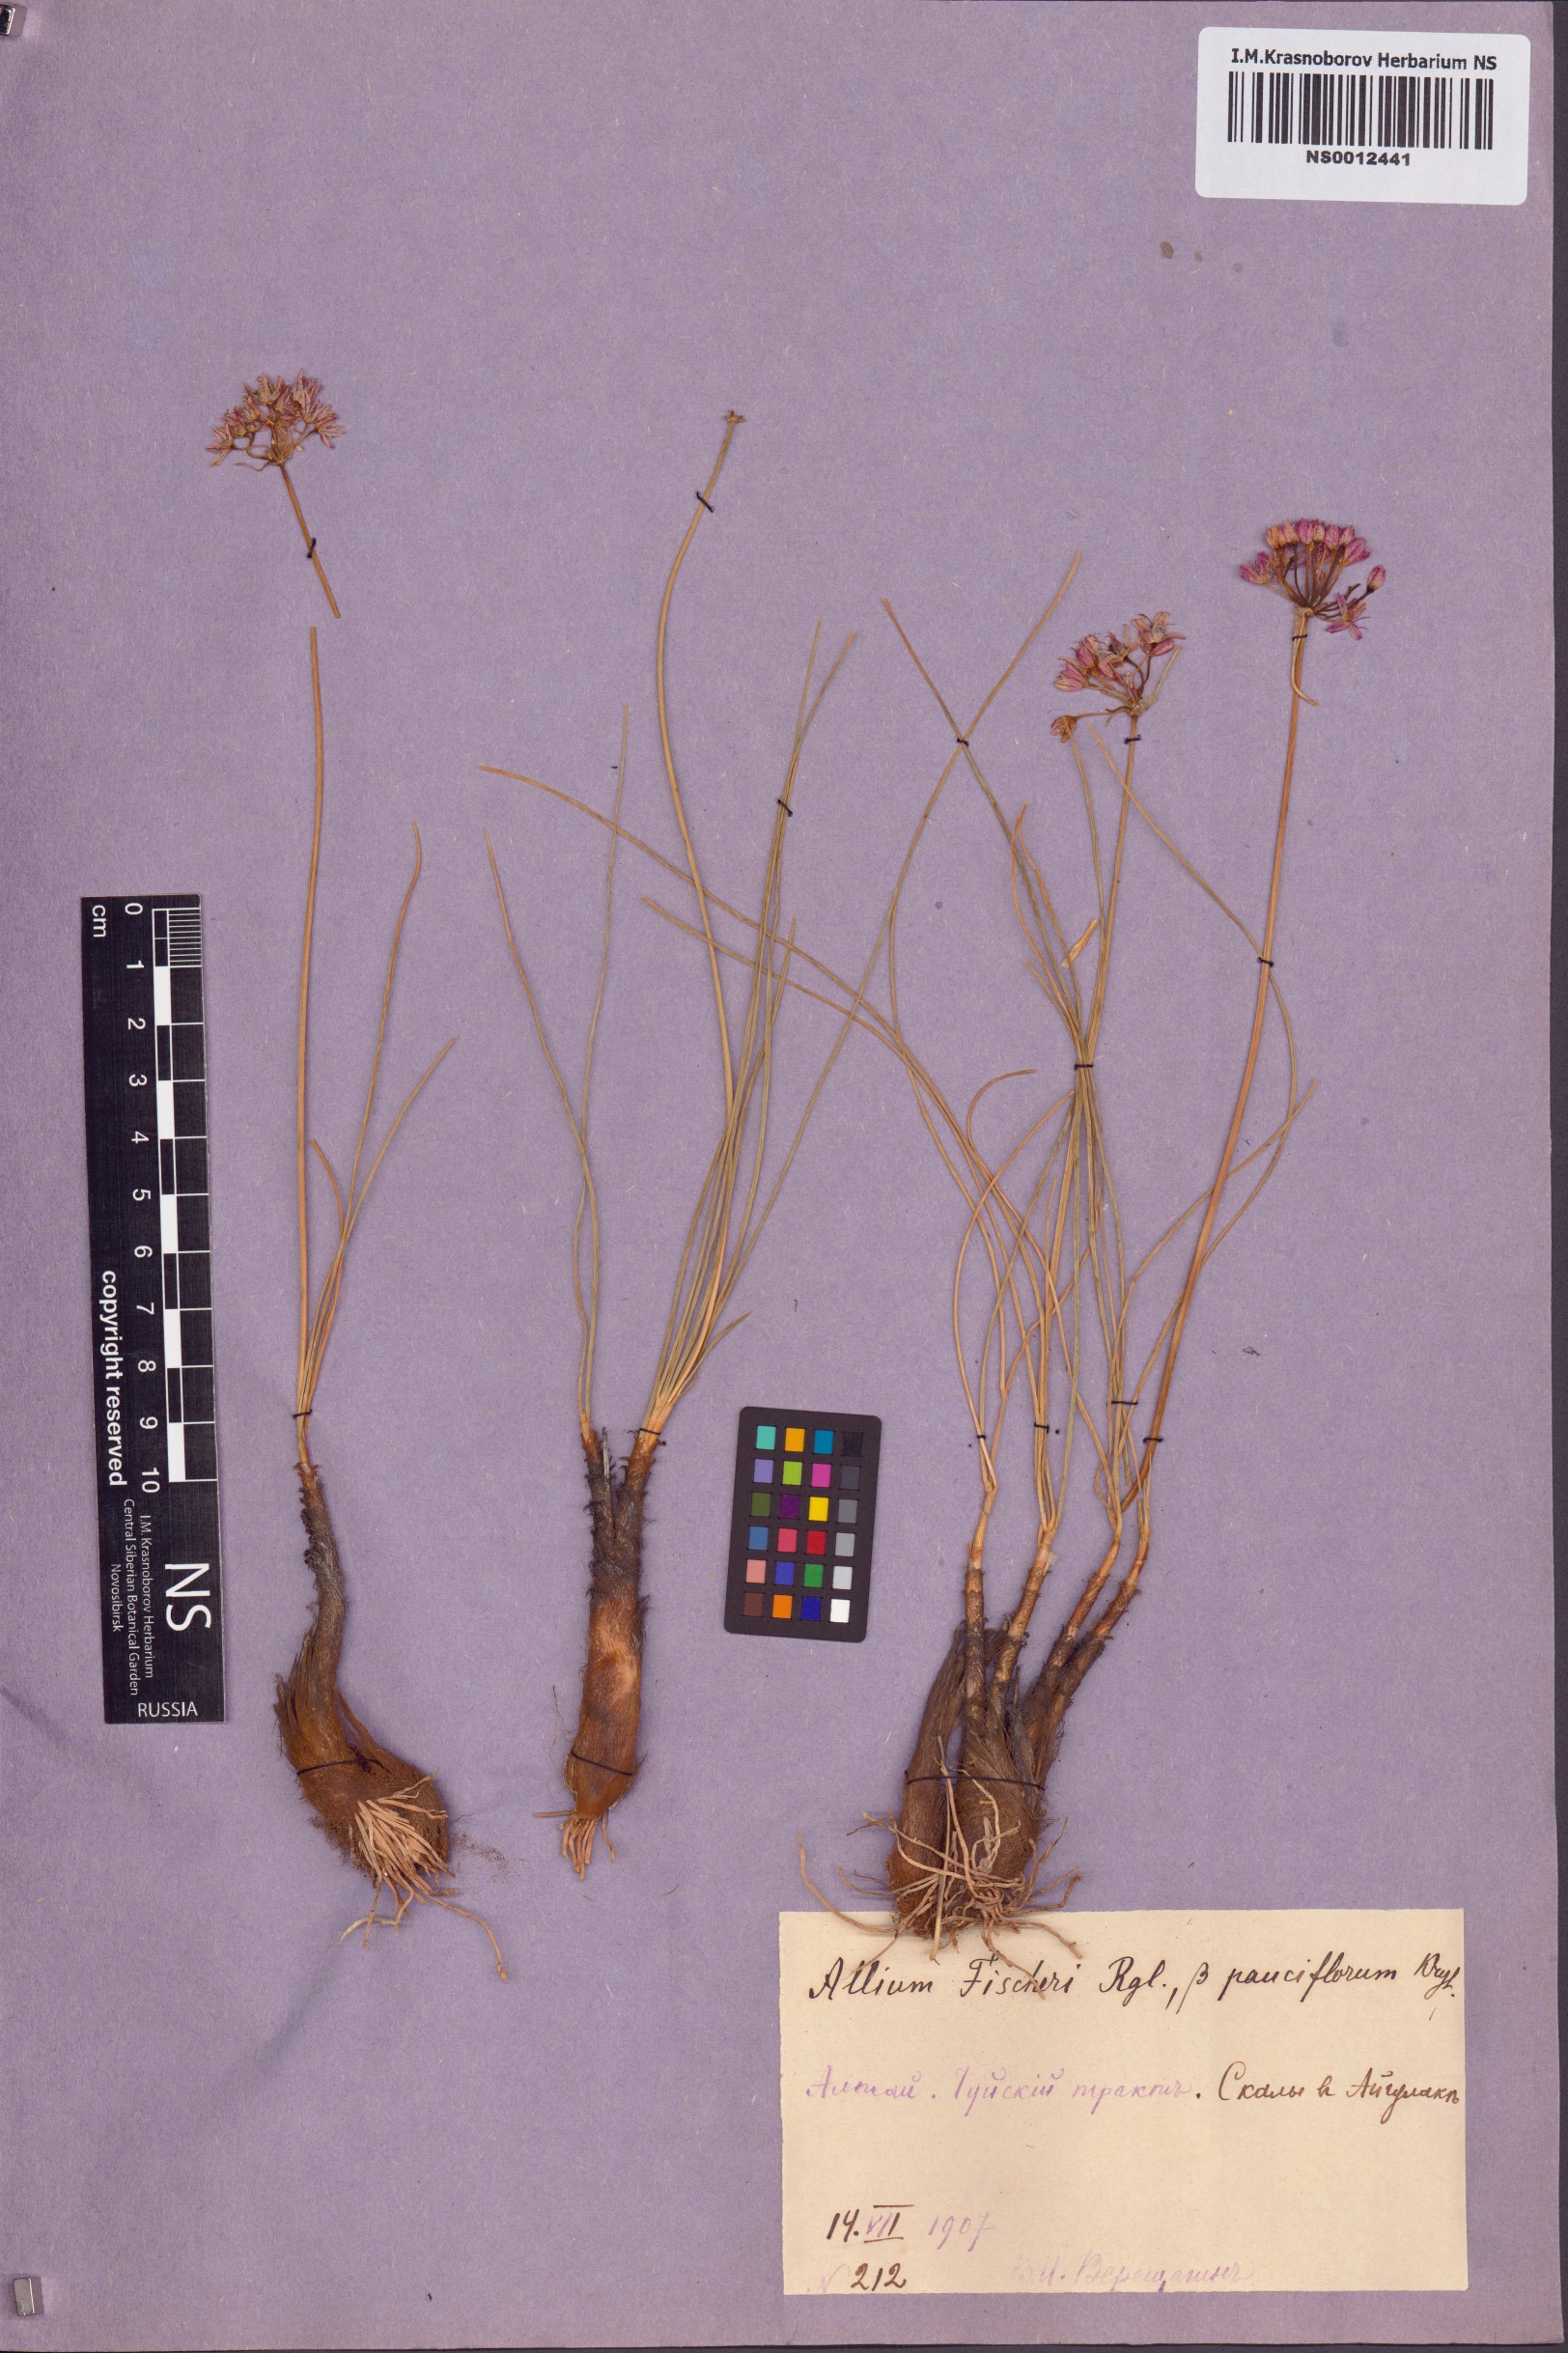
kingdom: Plantae
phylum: Tracheophyta
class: Liliopsida
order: Asparagales
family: Amaryllidaceae
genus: Allium
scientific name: Allium eduardi
